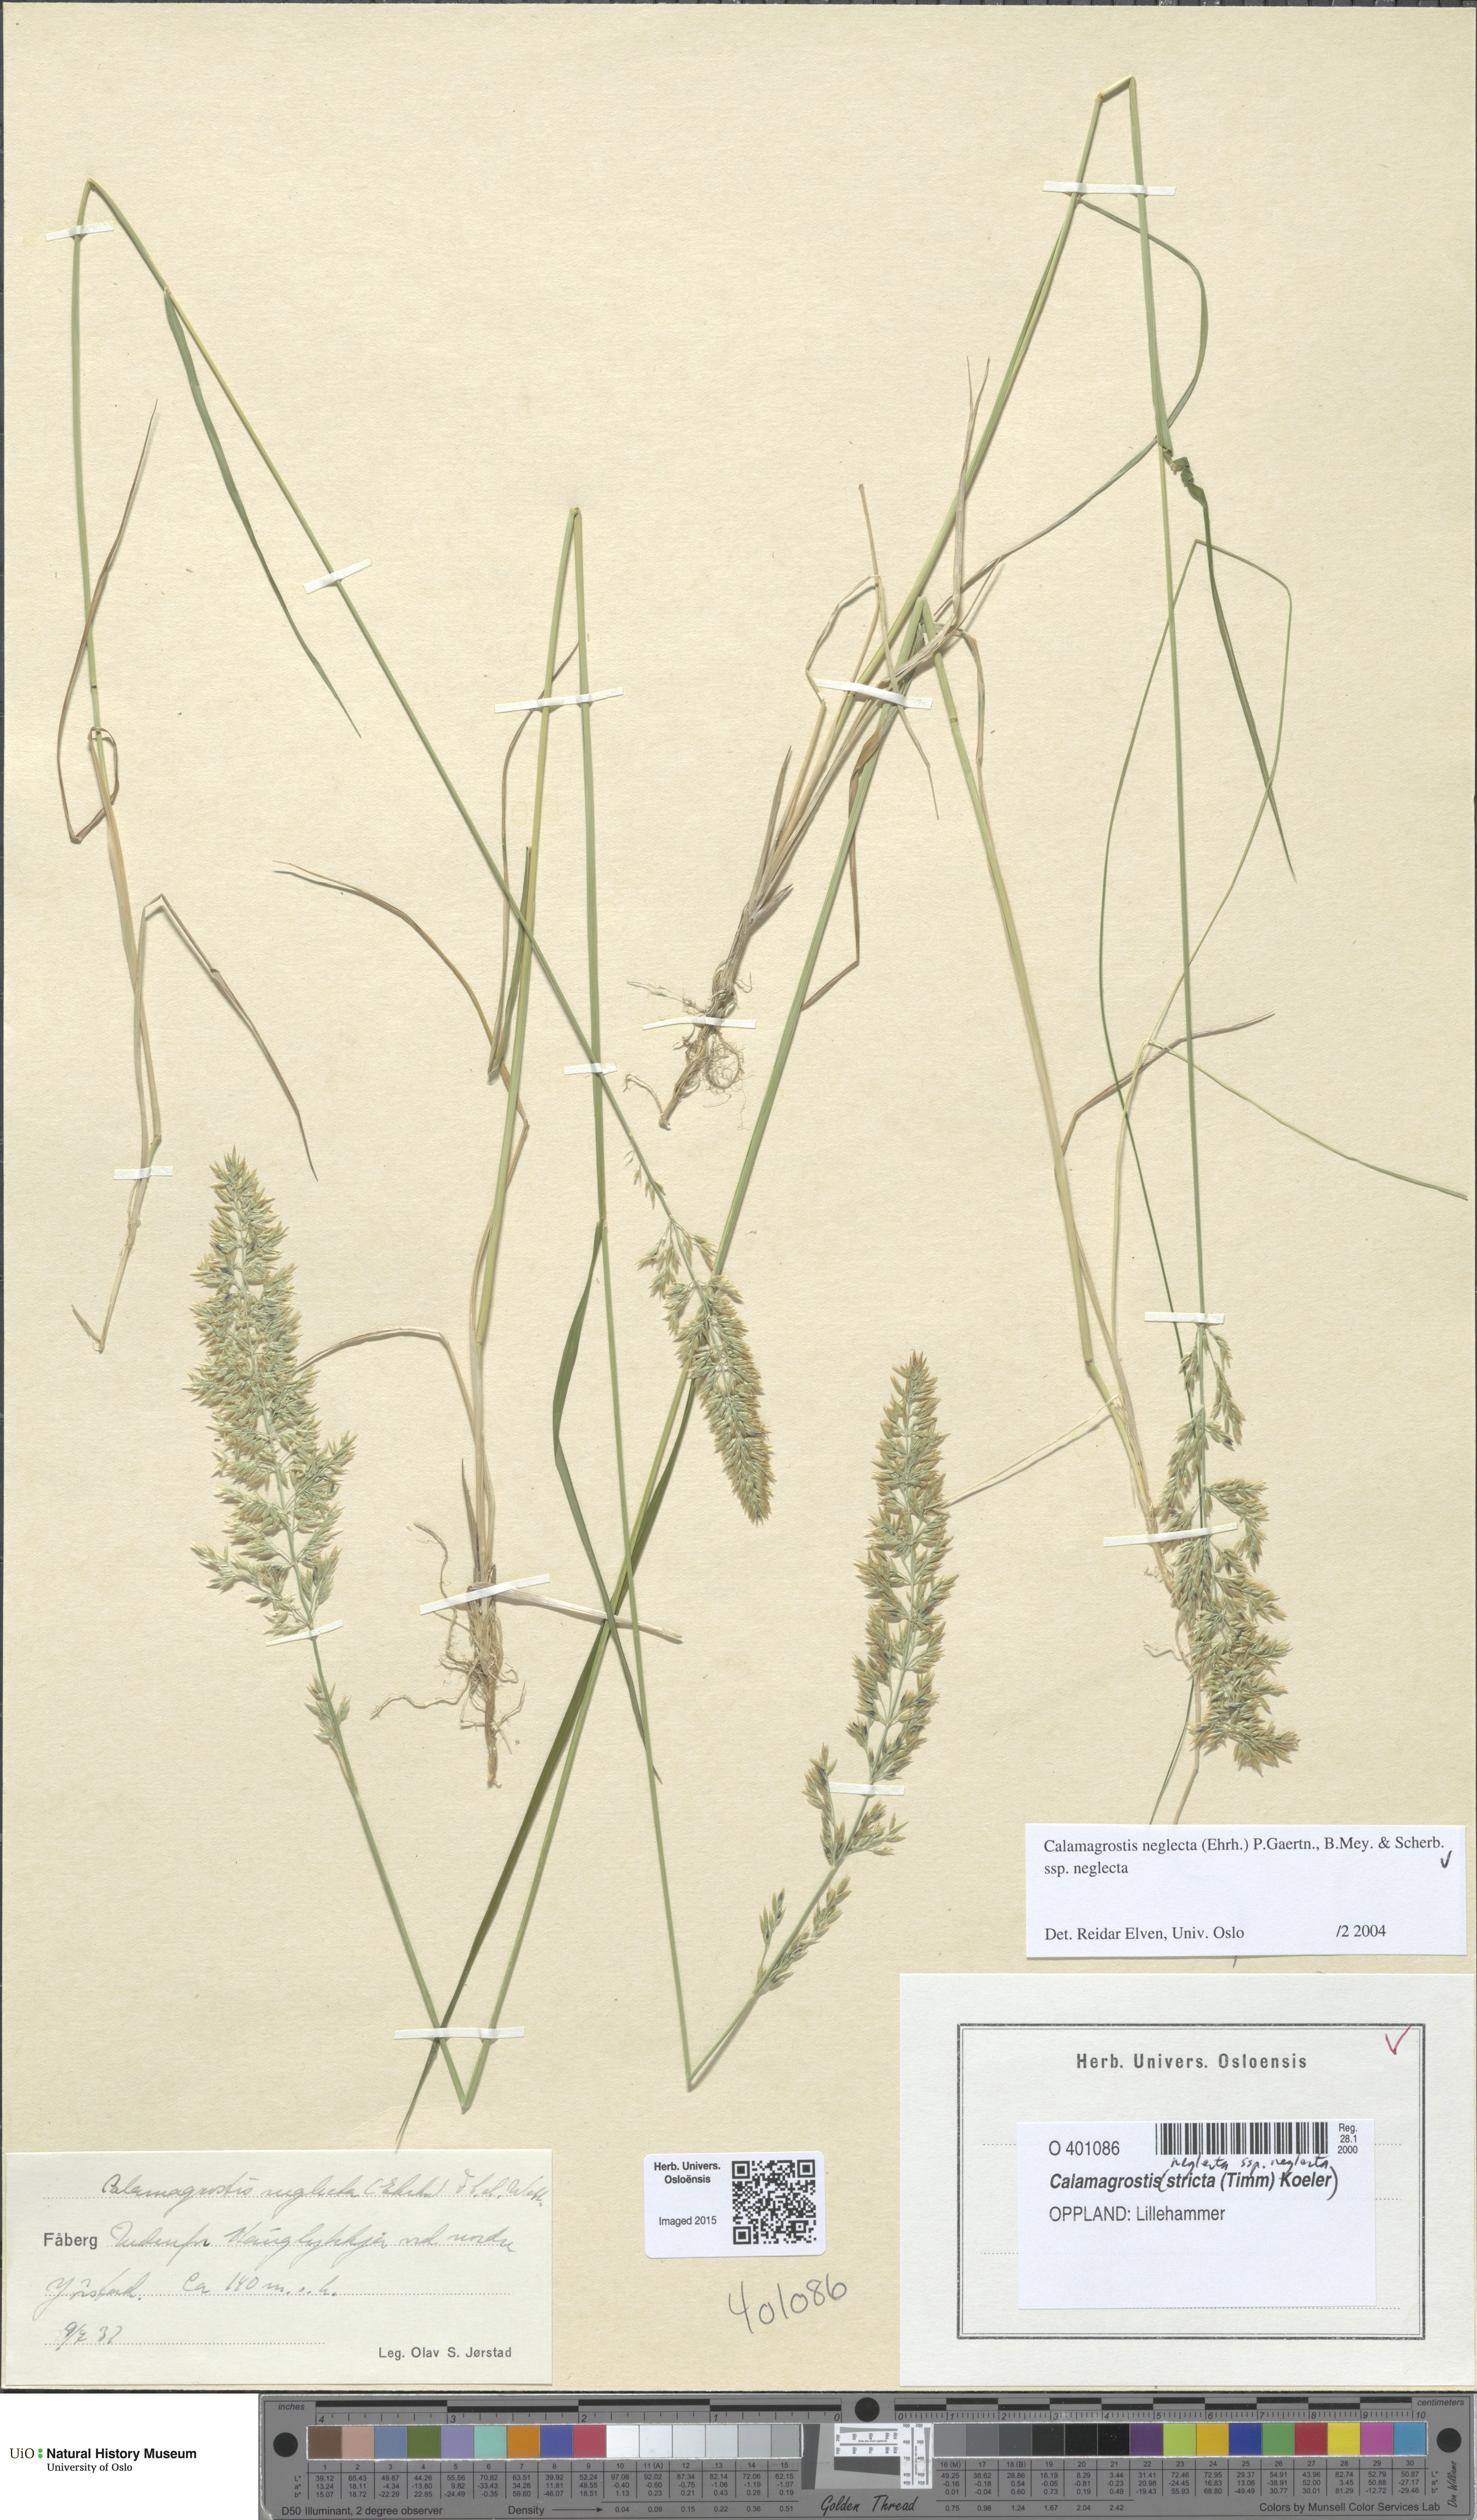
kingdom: Plantae
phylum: Tracheophyta
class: Liliopsida
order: Poales
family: Poaceae
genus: Achnatherum
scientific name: Achnatherum calamagrostis
